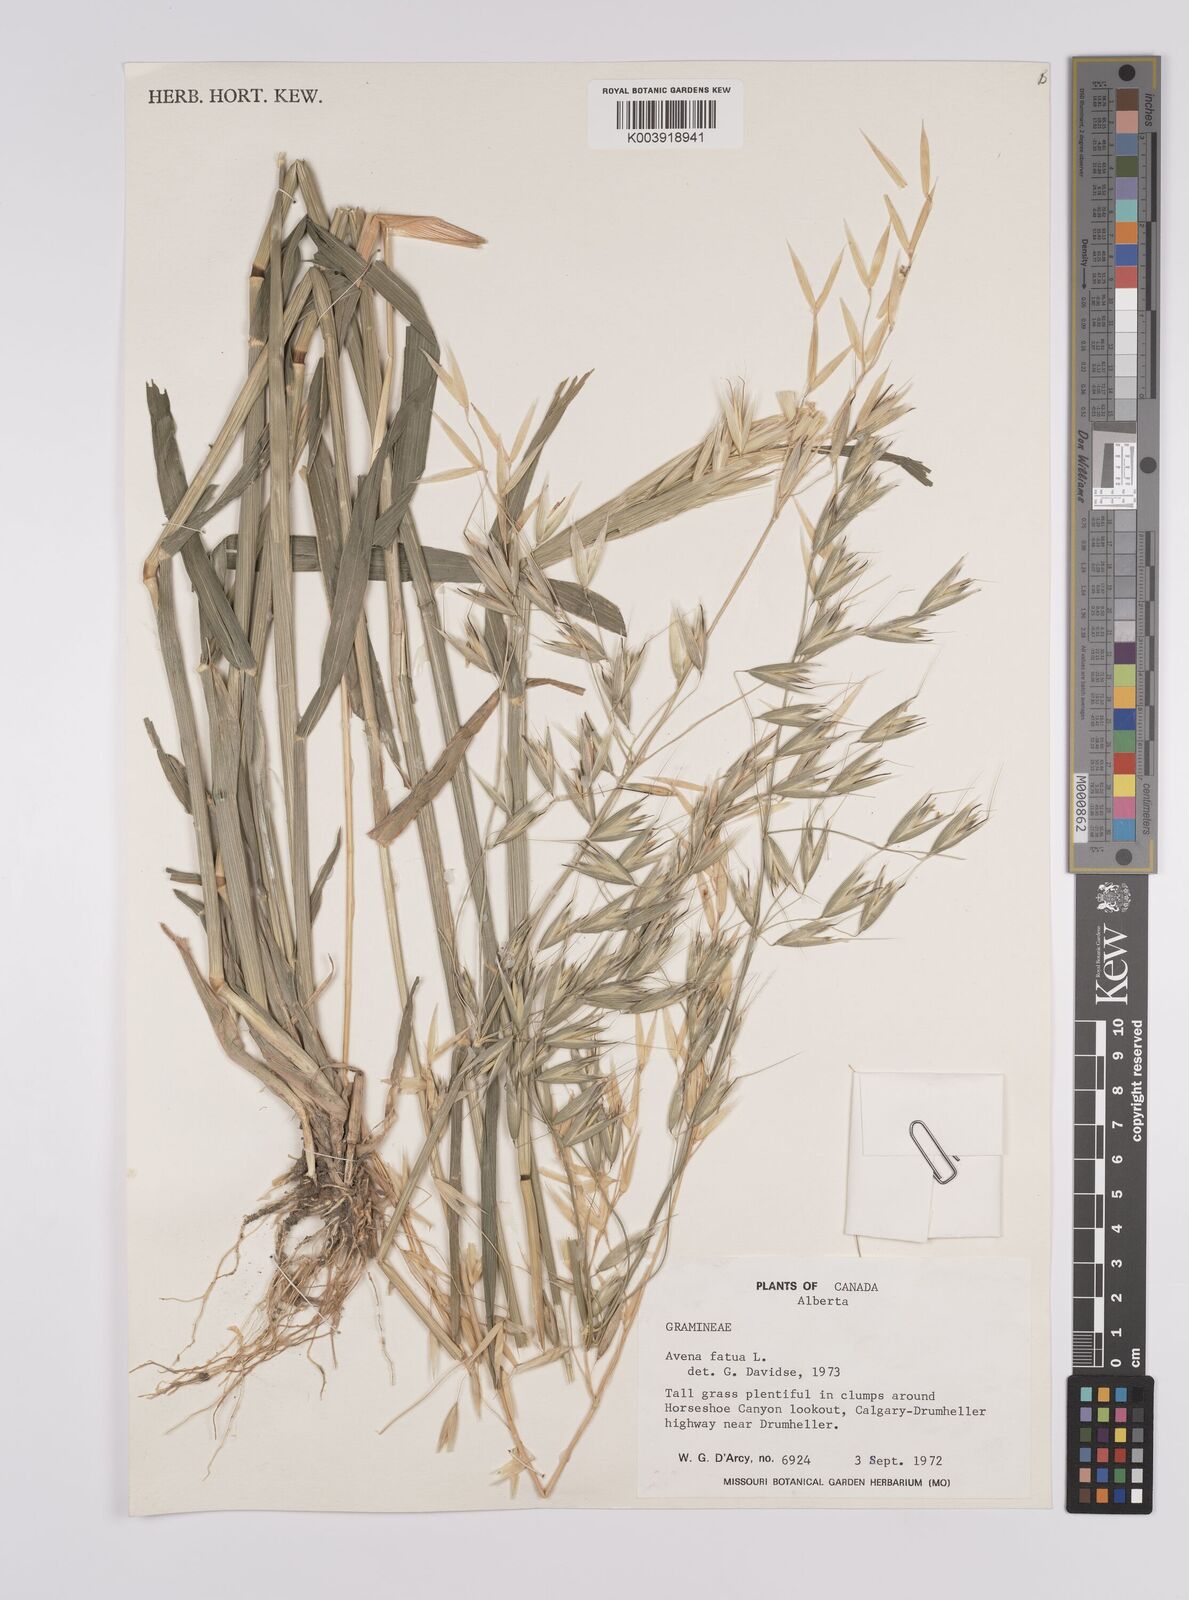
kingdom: Plantae
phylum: Tracheophyta
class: Liliopsida
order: Poales
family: Poaceae
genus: Avena
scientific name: Avena fatua
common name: Wild oat
